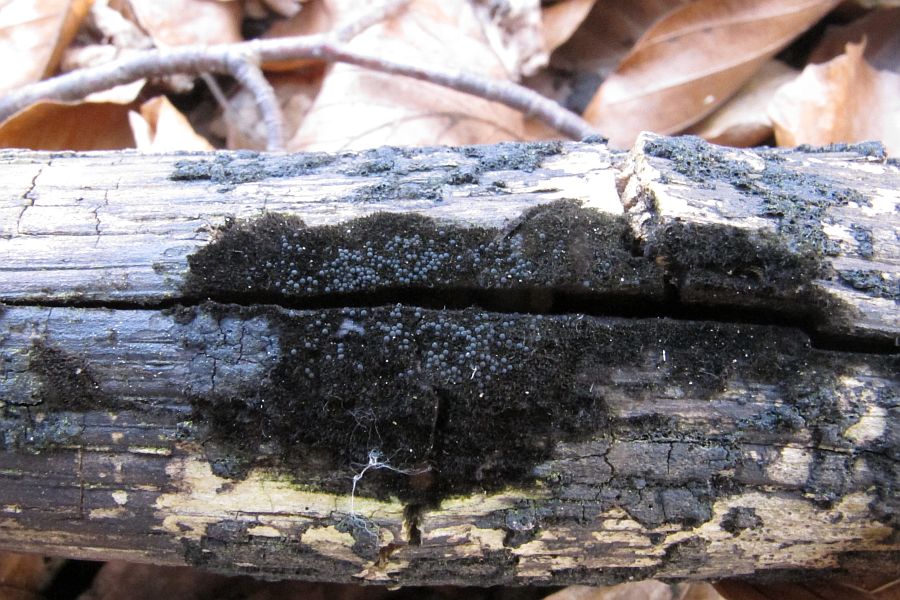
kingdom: Fungi
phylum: Ascomycota
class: Sordariomycetes
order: Coronophorales
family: Chaetosphaerellaceae
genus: Chaetosphaerella
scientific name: Chaetosphaerella phaeostroma
